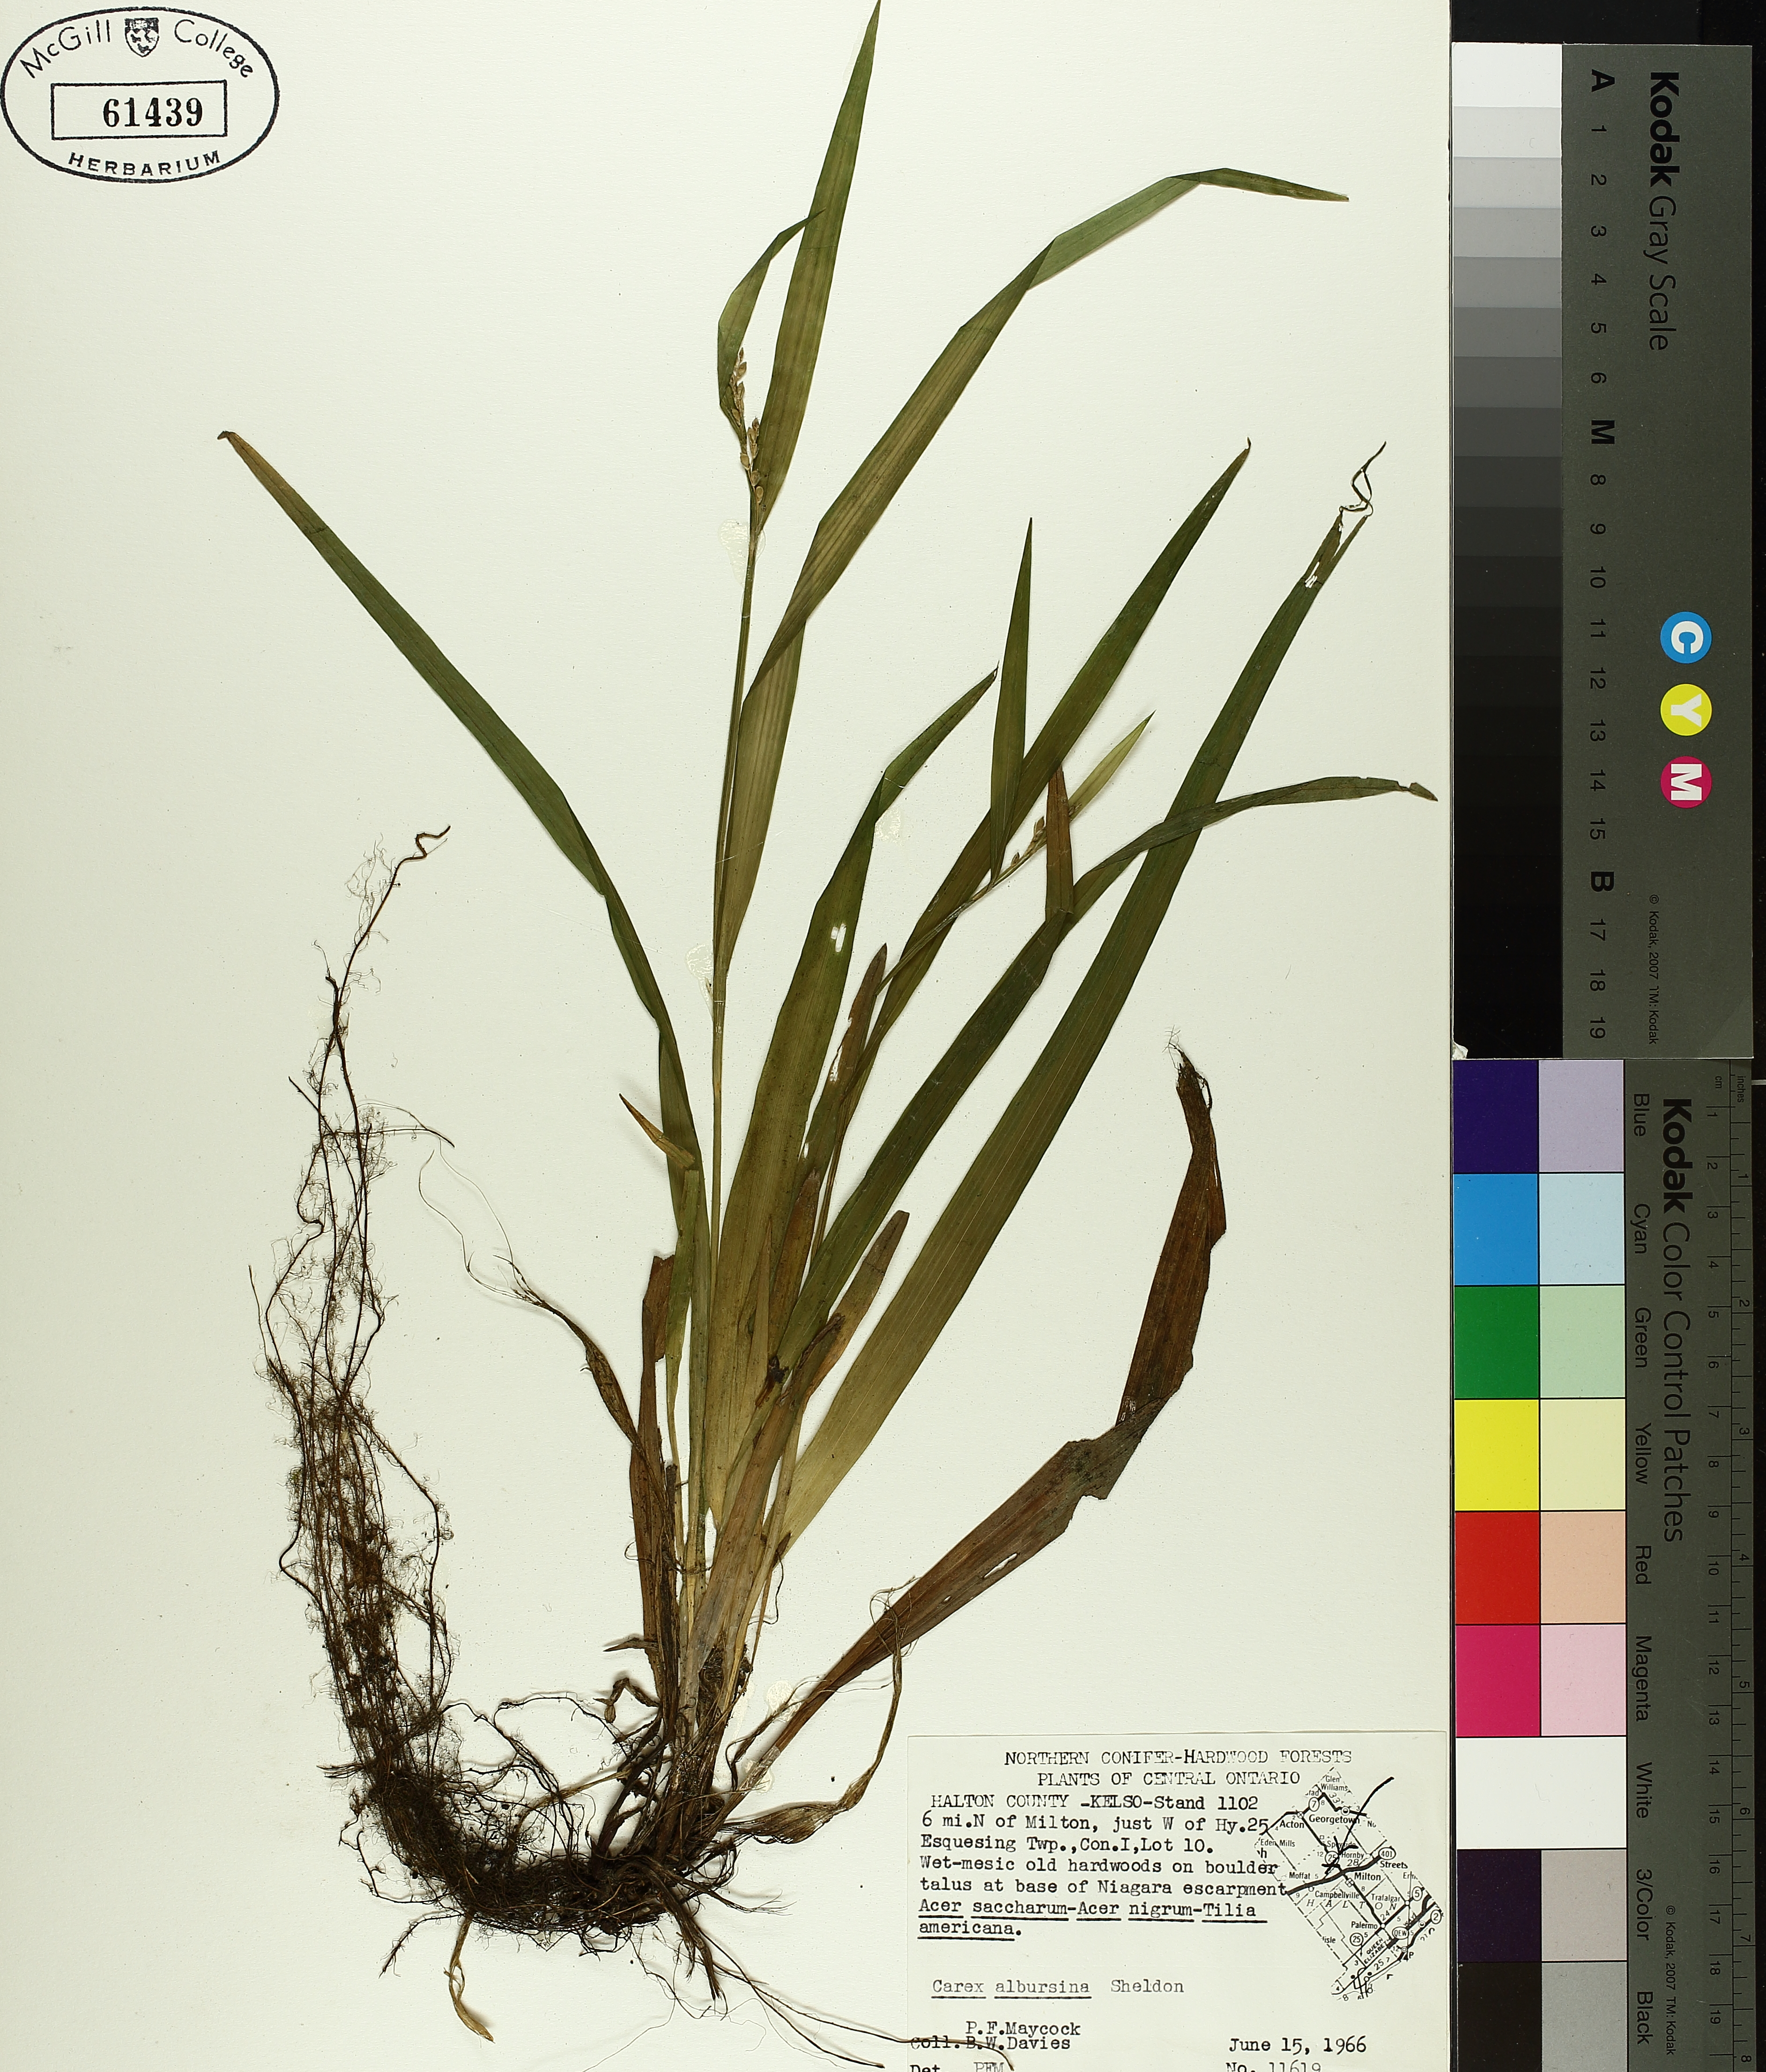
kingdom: Plantae
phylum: Tracheophyta
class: Liliopsida
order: Poales
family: Cyperaceae
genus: Carex
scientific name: Carex albursina
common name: Blunt-scale wood sedge
